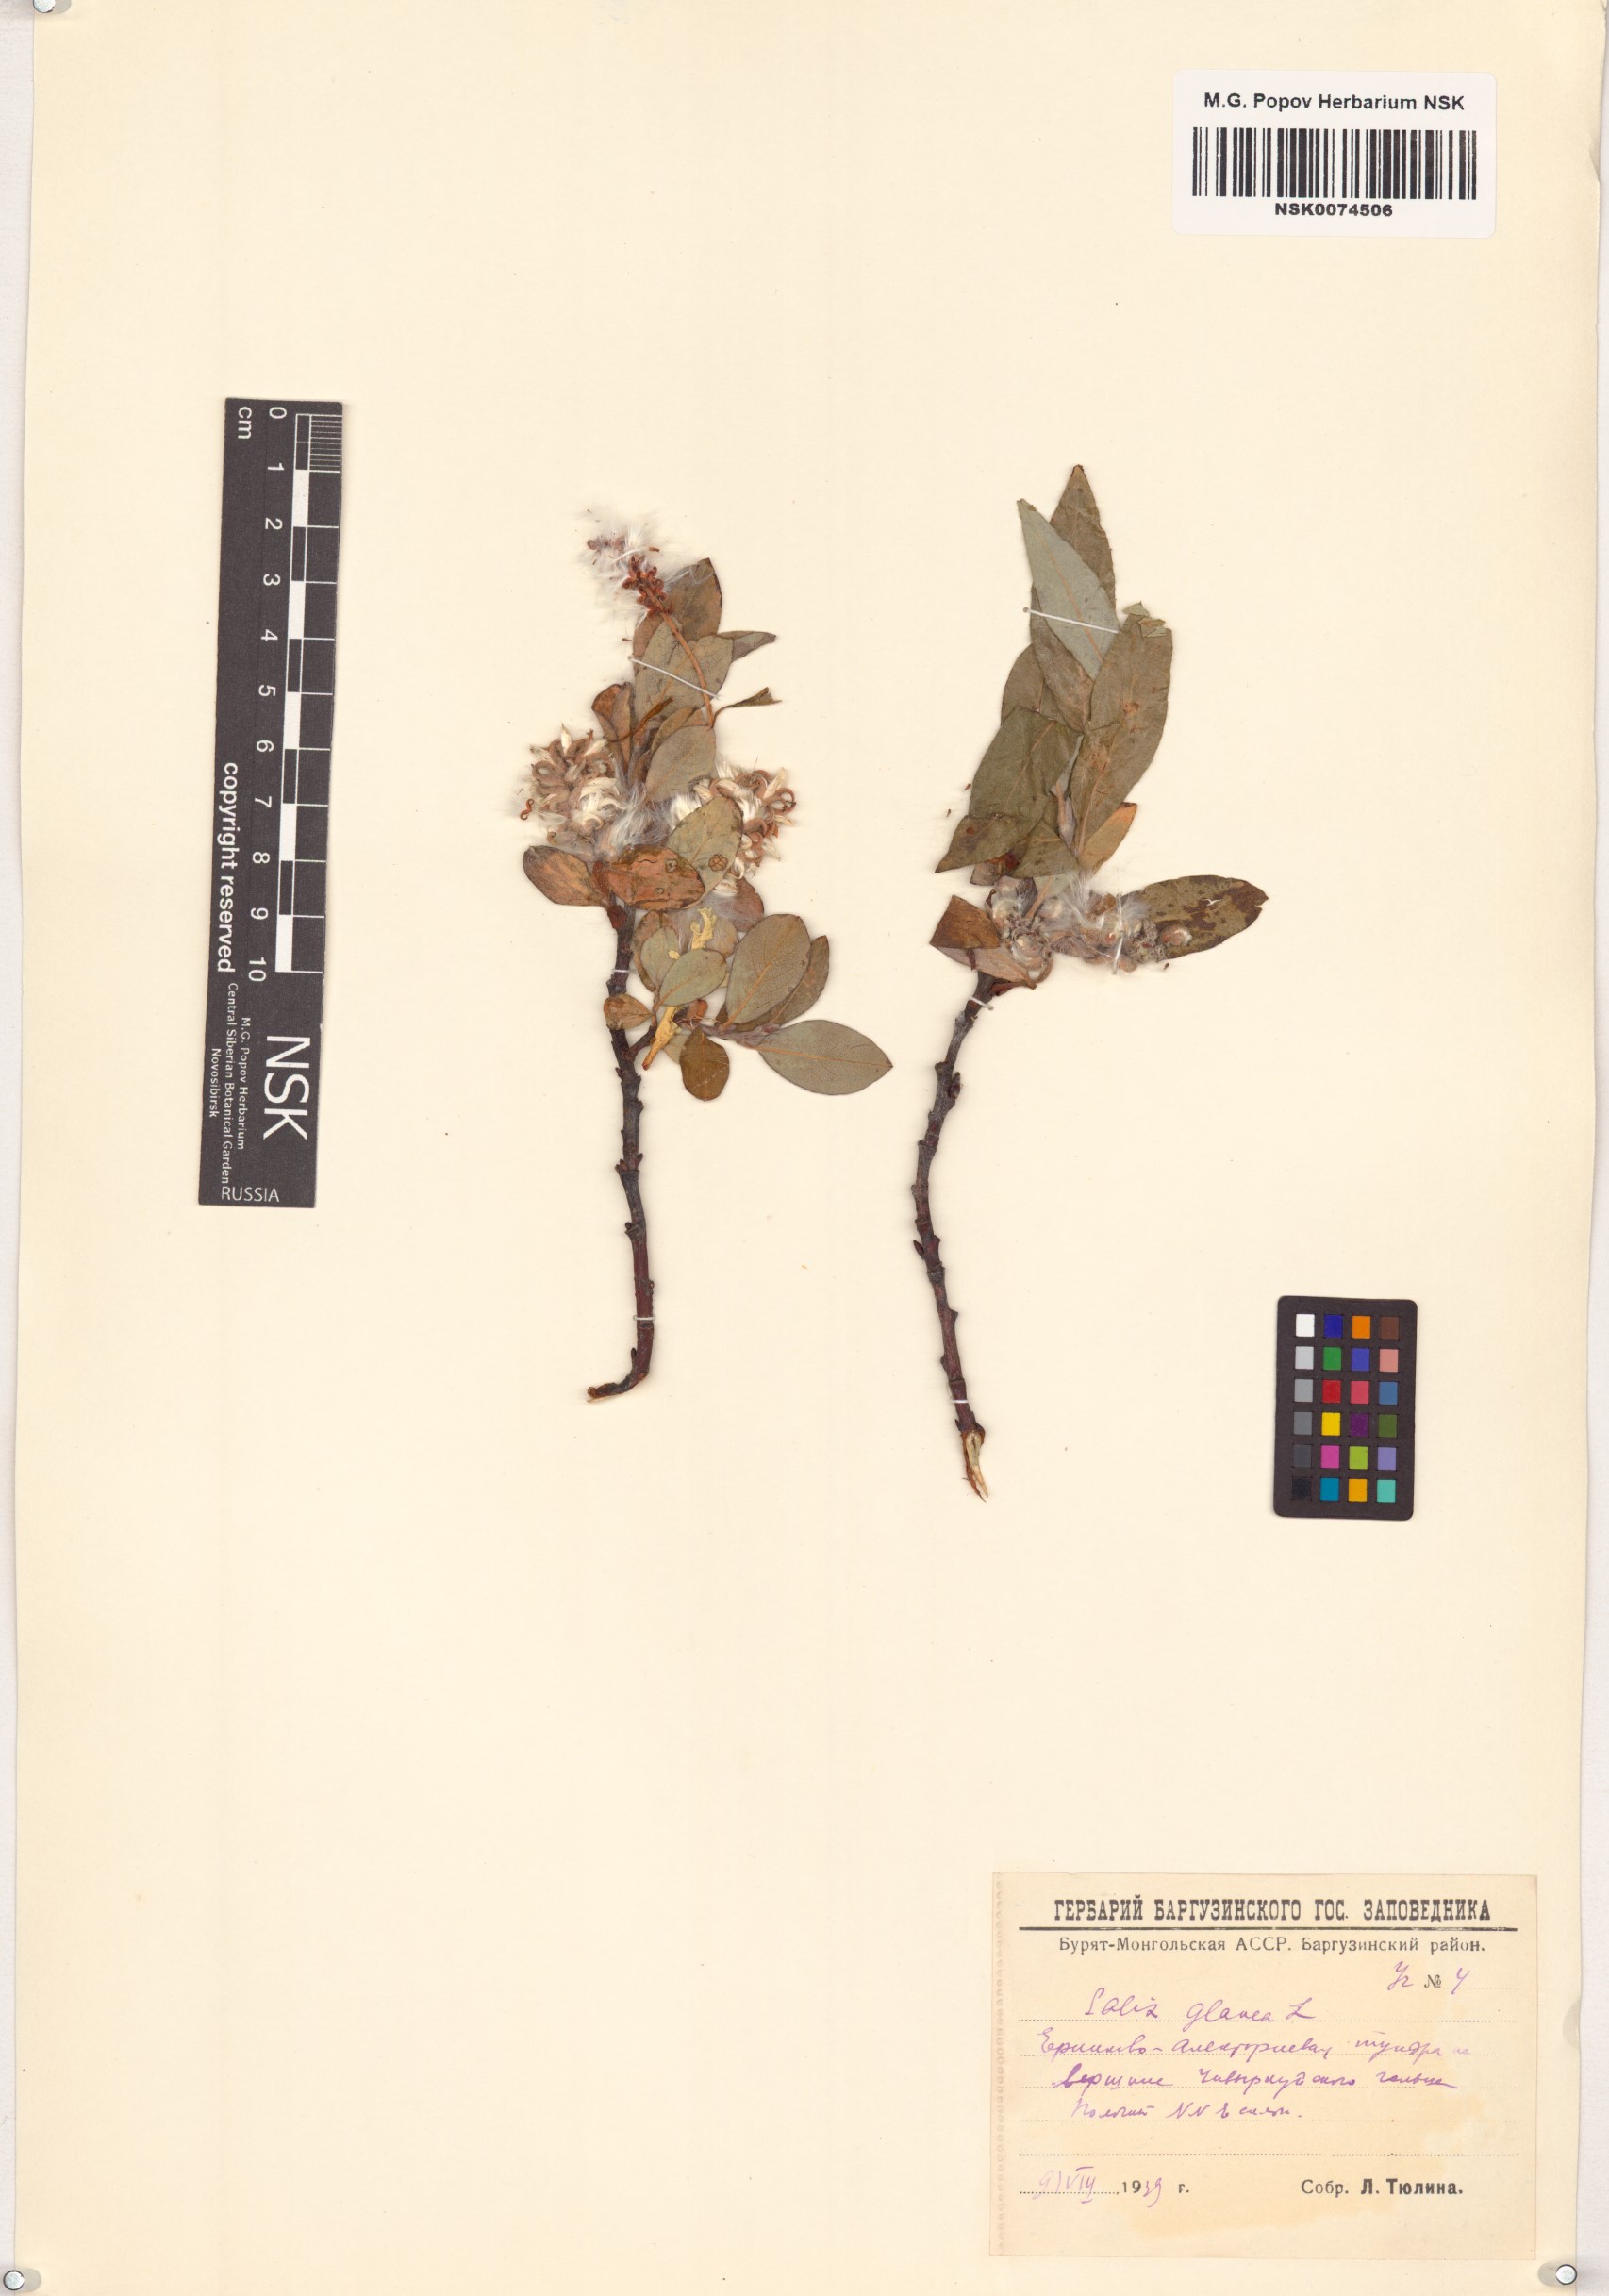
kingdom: Plantae
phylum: Tracheophyta
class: Magnoliopsida
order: Malpighiales
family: Salicaceae
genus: Salix
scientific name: Salix glauca
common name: Glaucous willow
